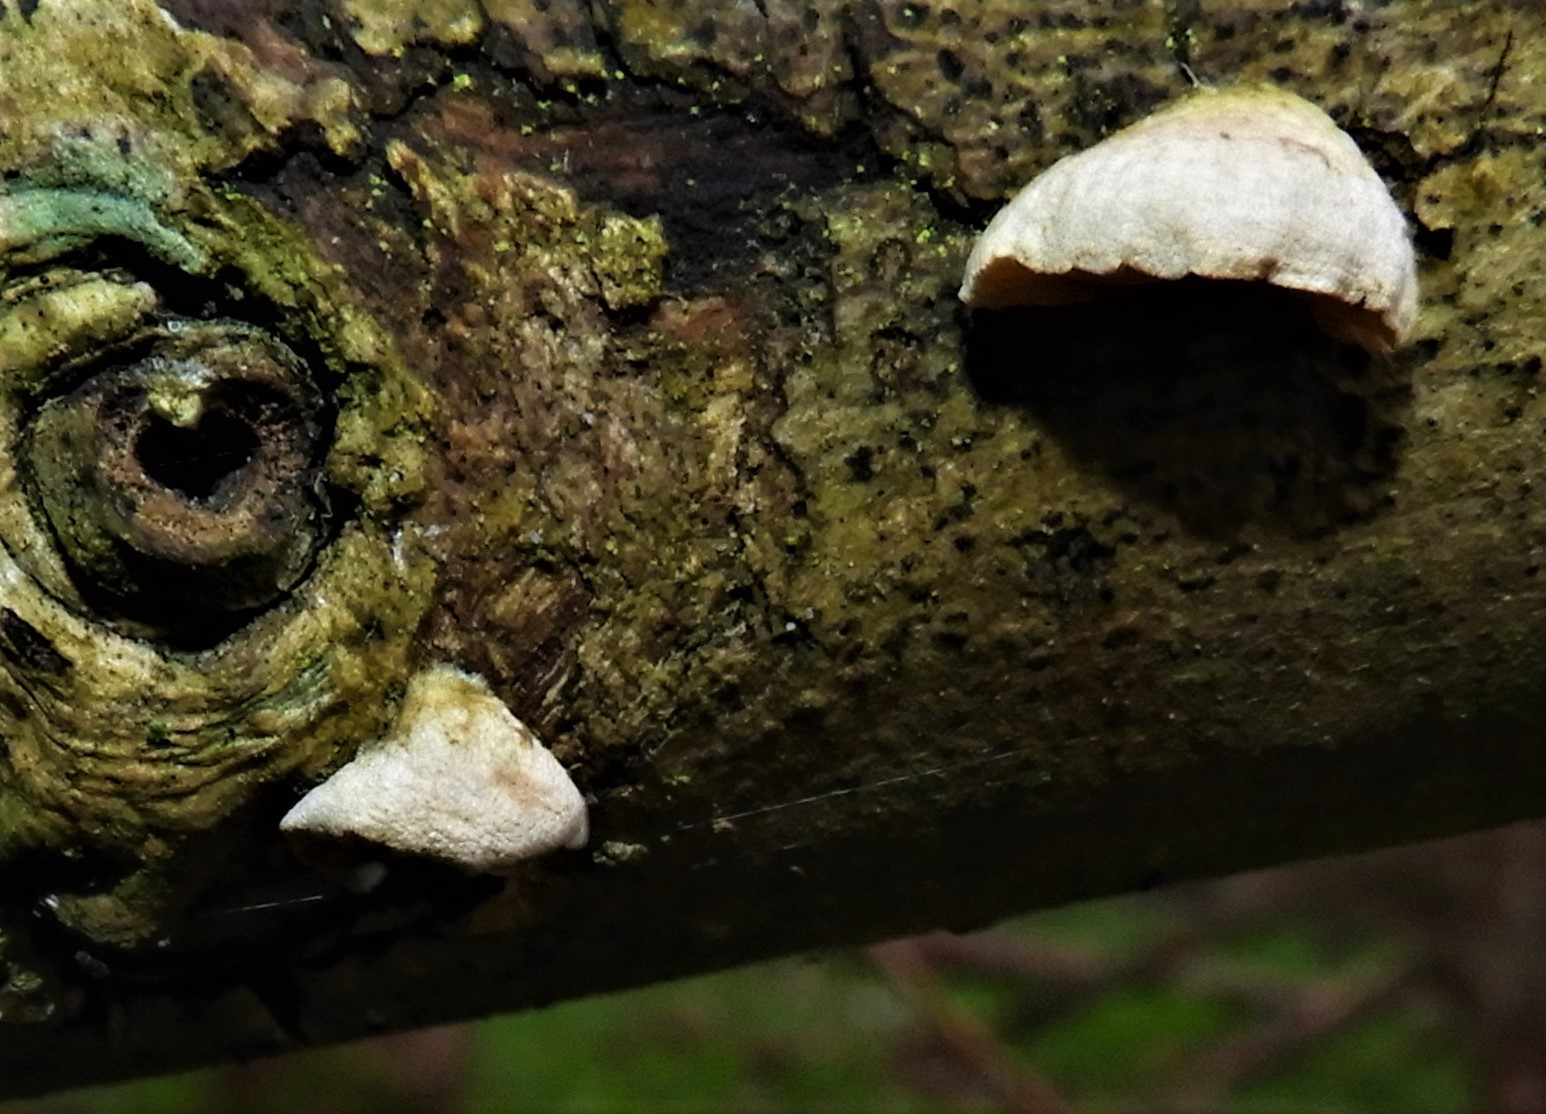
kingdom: Fungi
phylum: Basidiomycota
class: Agaricomycetes
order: Agaricales
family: Crepidotaceae
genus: Crepidotus
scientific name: Crepidotus cesatii
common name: almindelig muslingesvamp
